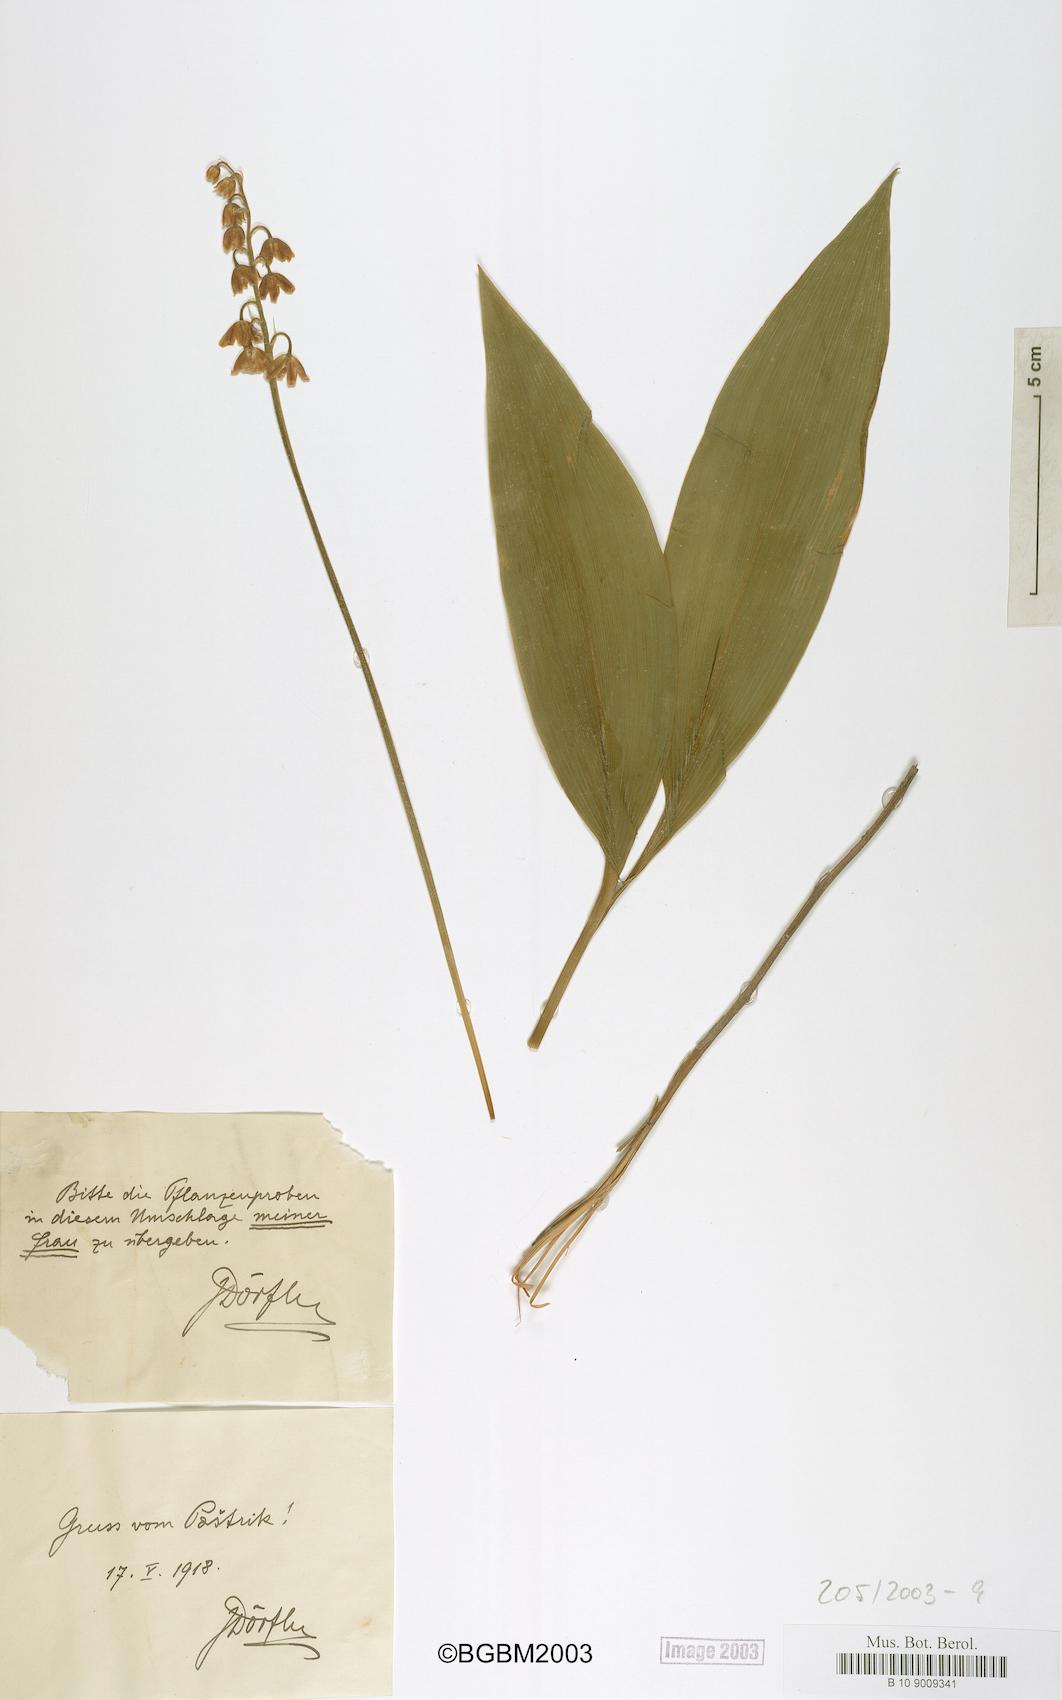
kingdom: Plantae
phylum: Tracheophyta
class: Liliopsida
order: Liliales
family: Liliaceae
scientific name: Liliaceae
